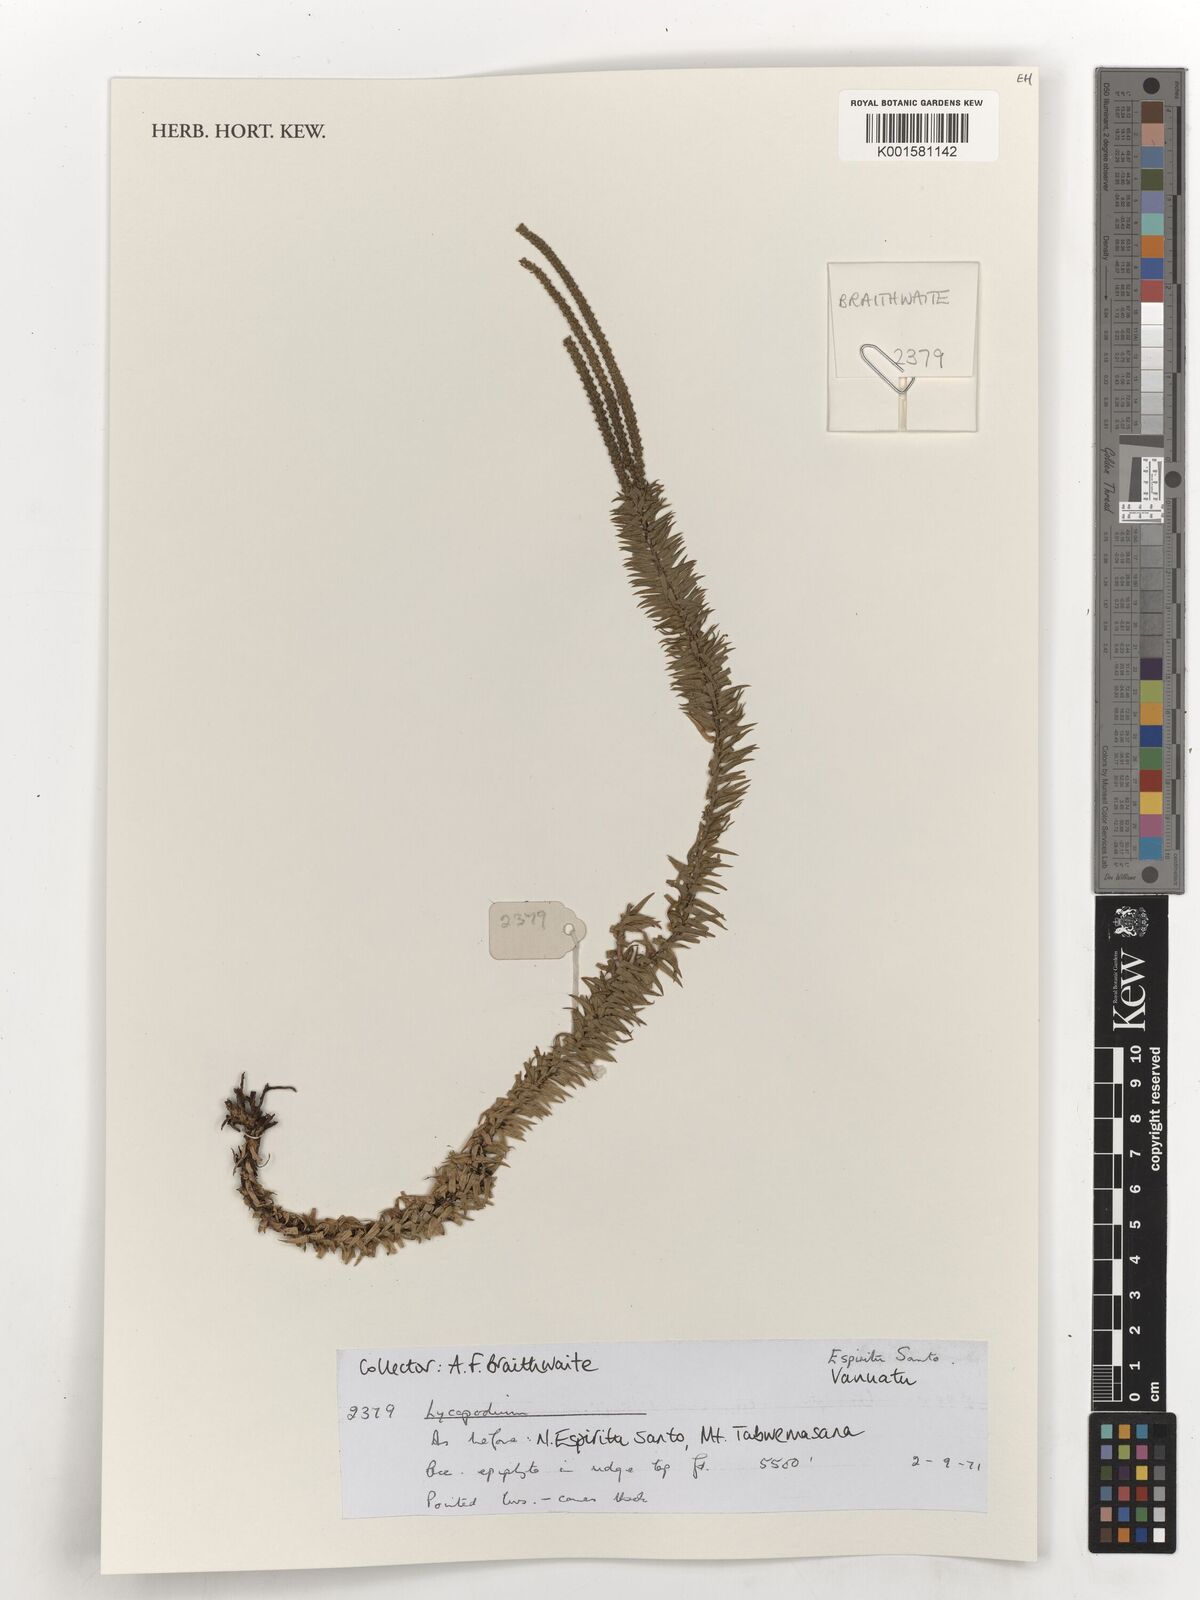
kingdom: Plantae
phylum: Tracheophyta
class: Lycopodiopsida
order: Lycopodiales
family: Lycopodiaceae
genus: Lycopodium
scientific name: Lycopodium
